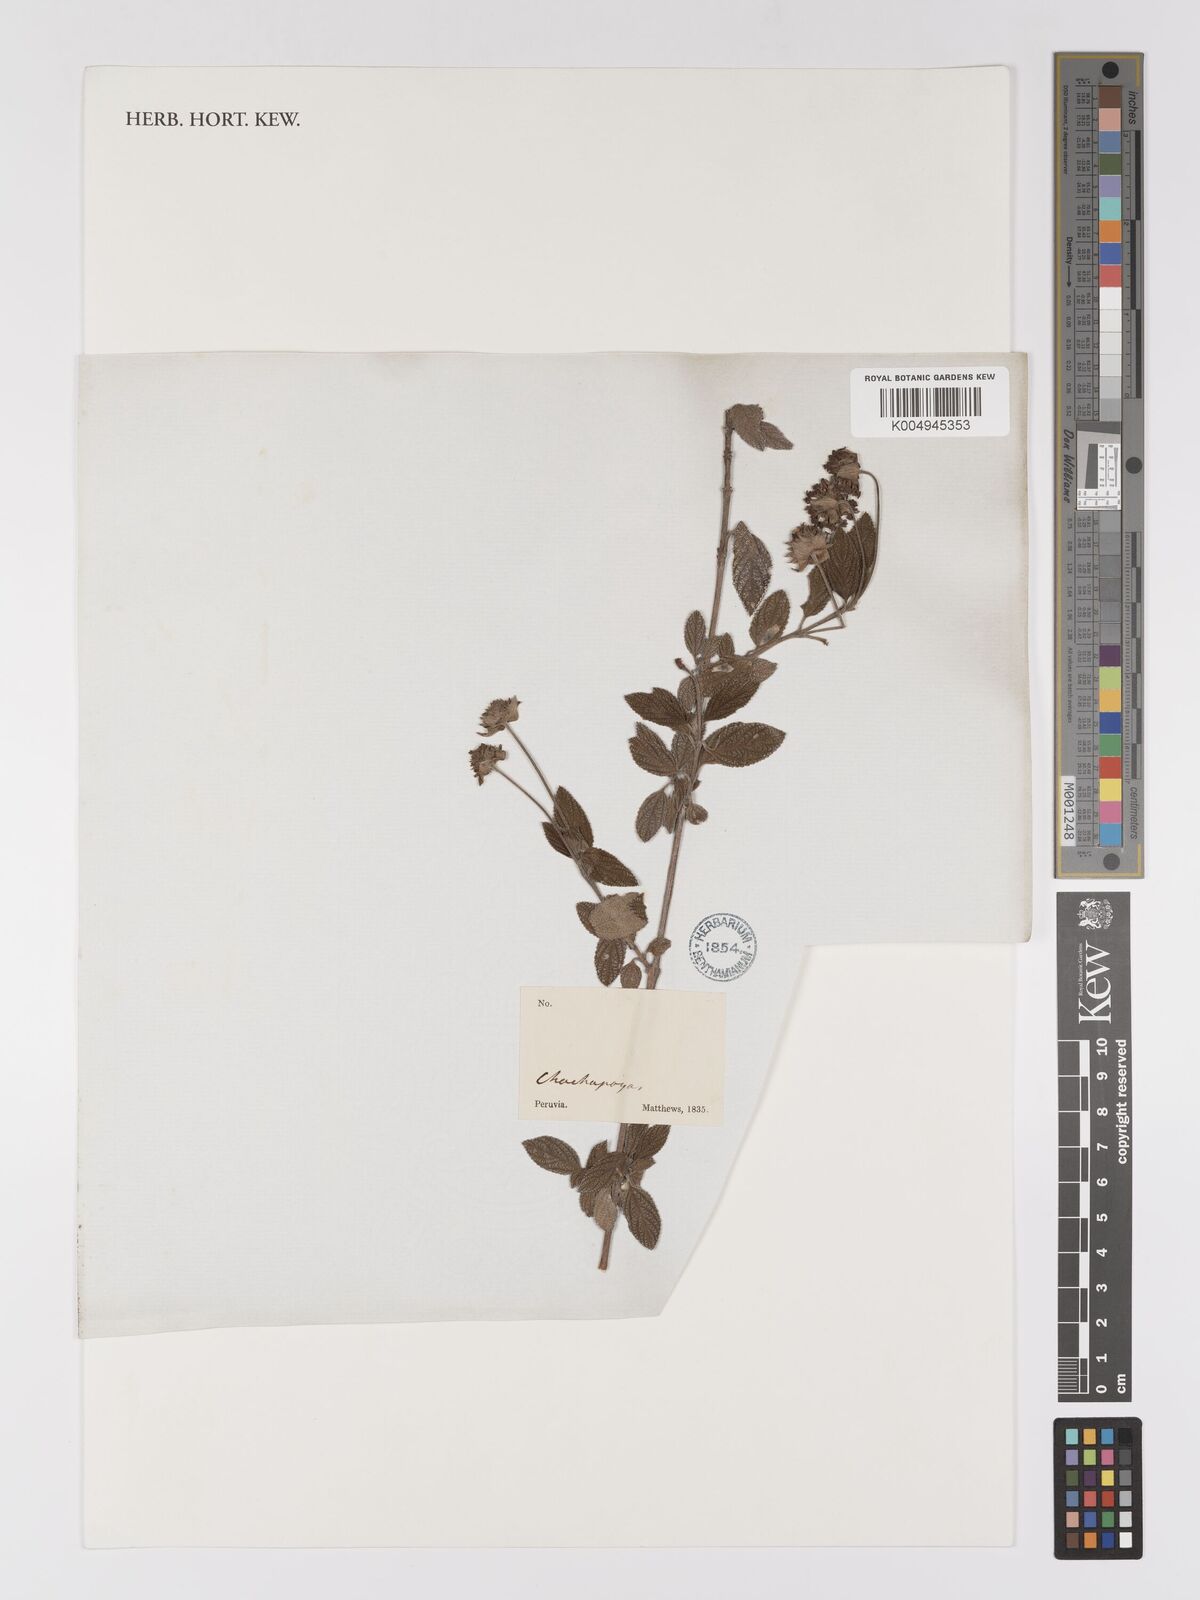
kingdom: Plantae
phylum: Tracheophyta
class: Magnoliopsida
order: Lamiales
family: Verbenaceae
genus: Lantana
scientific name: Lantana
